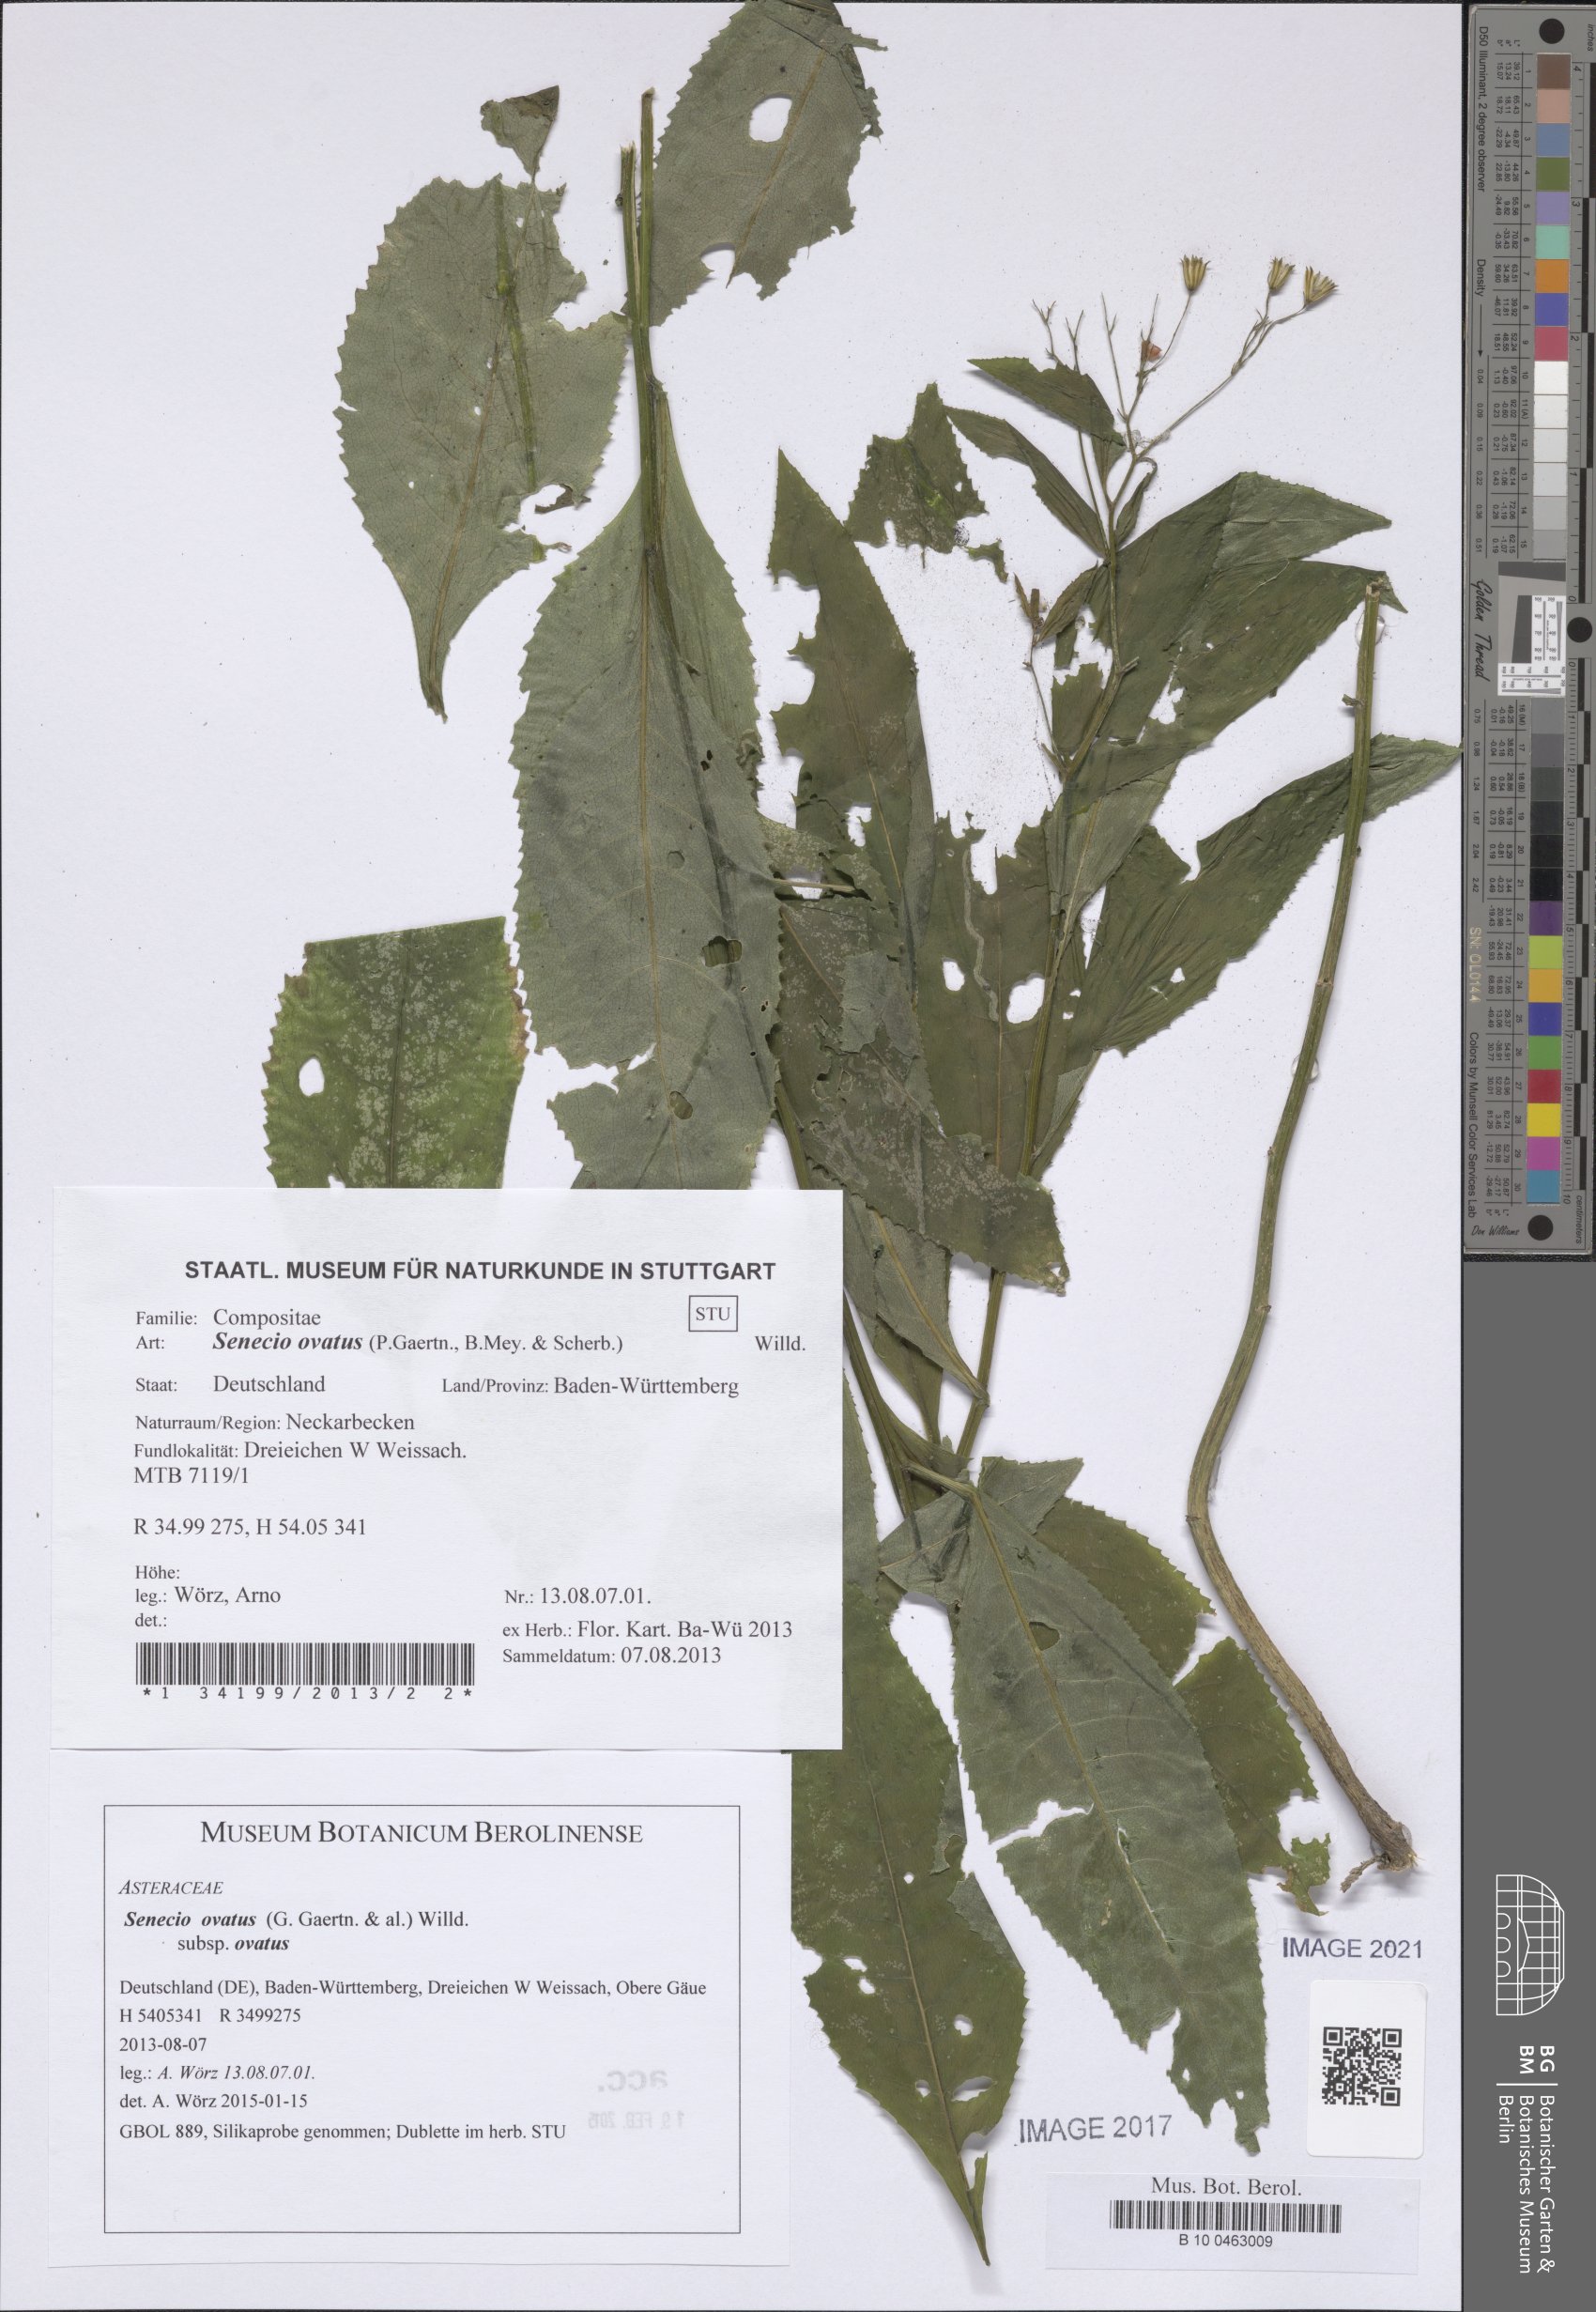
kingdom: Plantae
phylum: Tracheophyta
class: Magnoliopsida
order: Asterales
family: Asteraceae
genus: Senecio
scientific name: Senecio ovatus
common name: Wood ragwort
